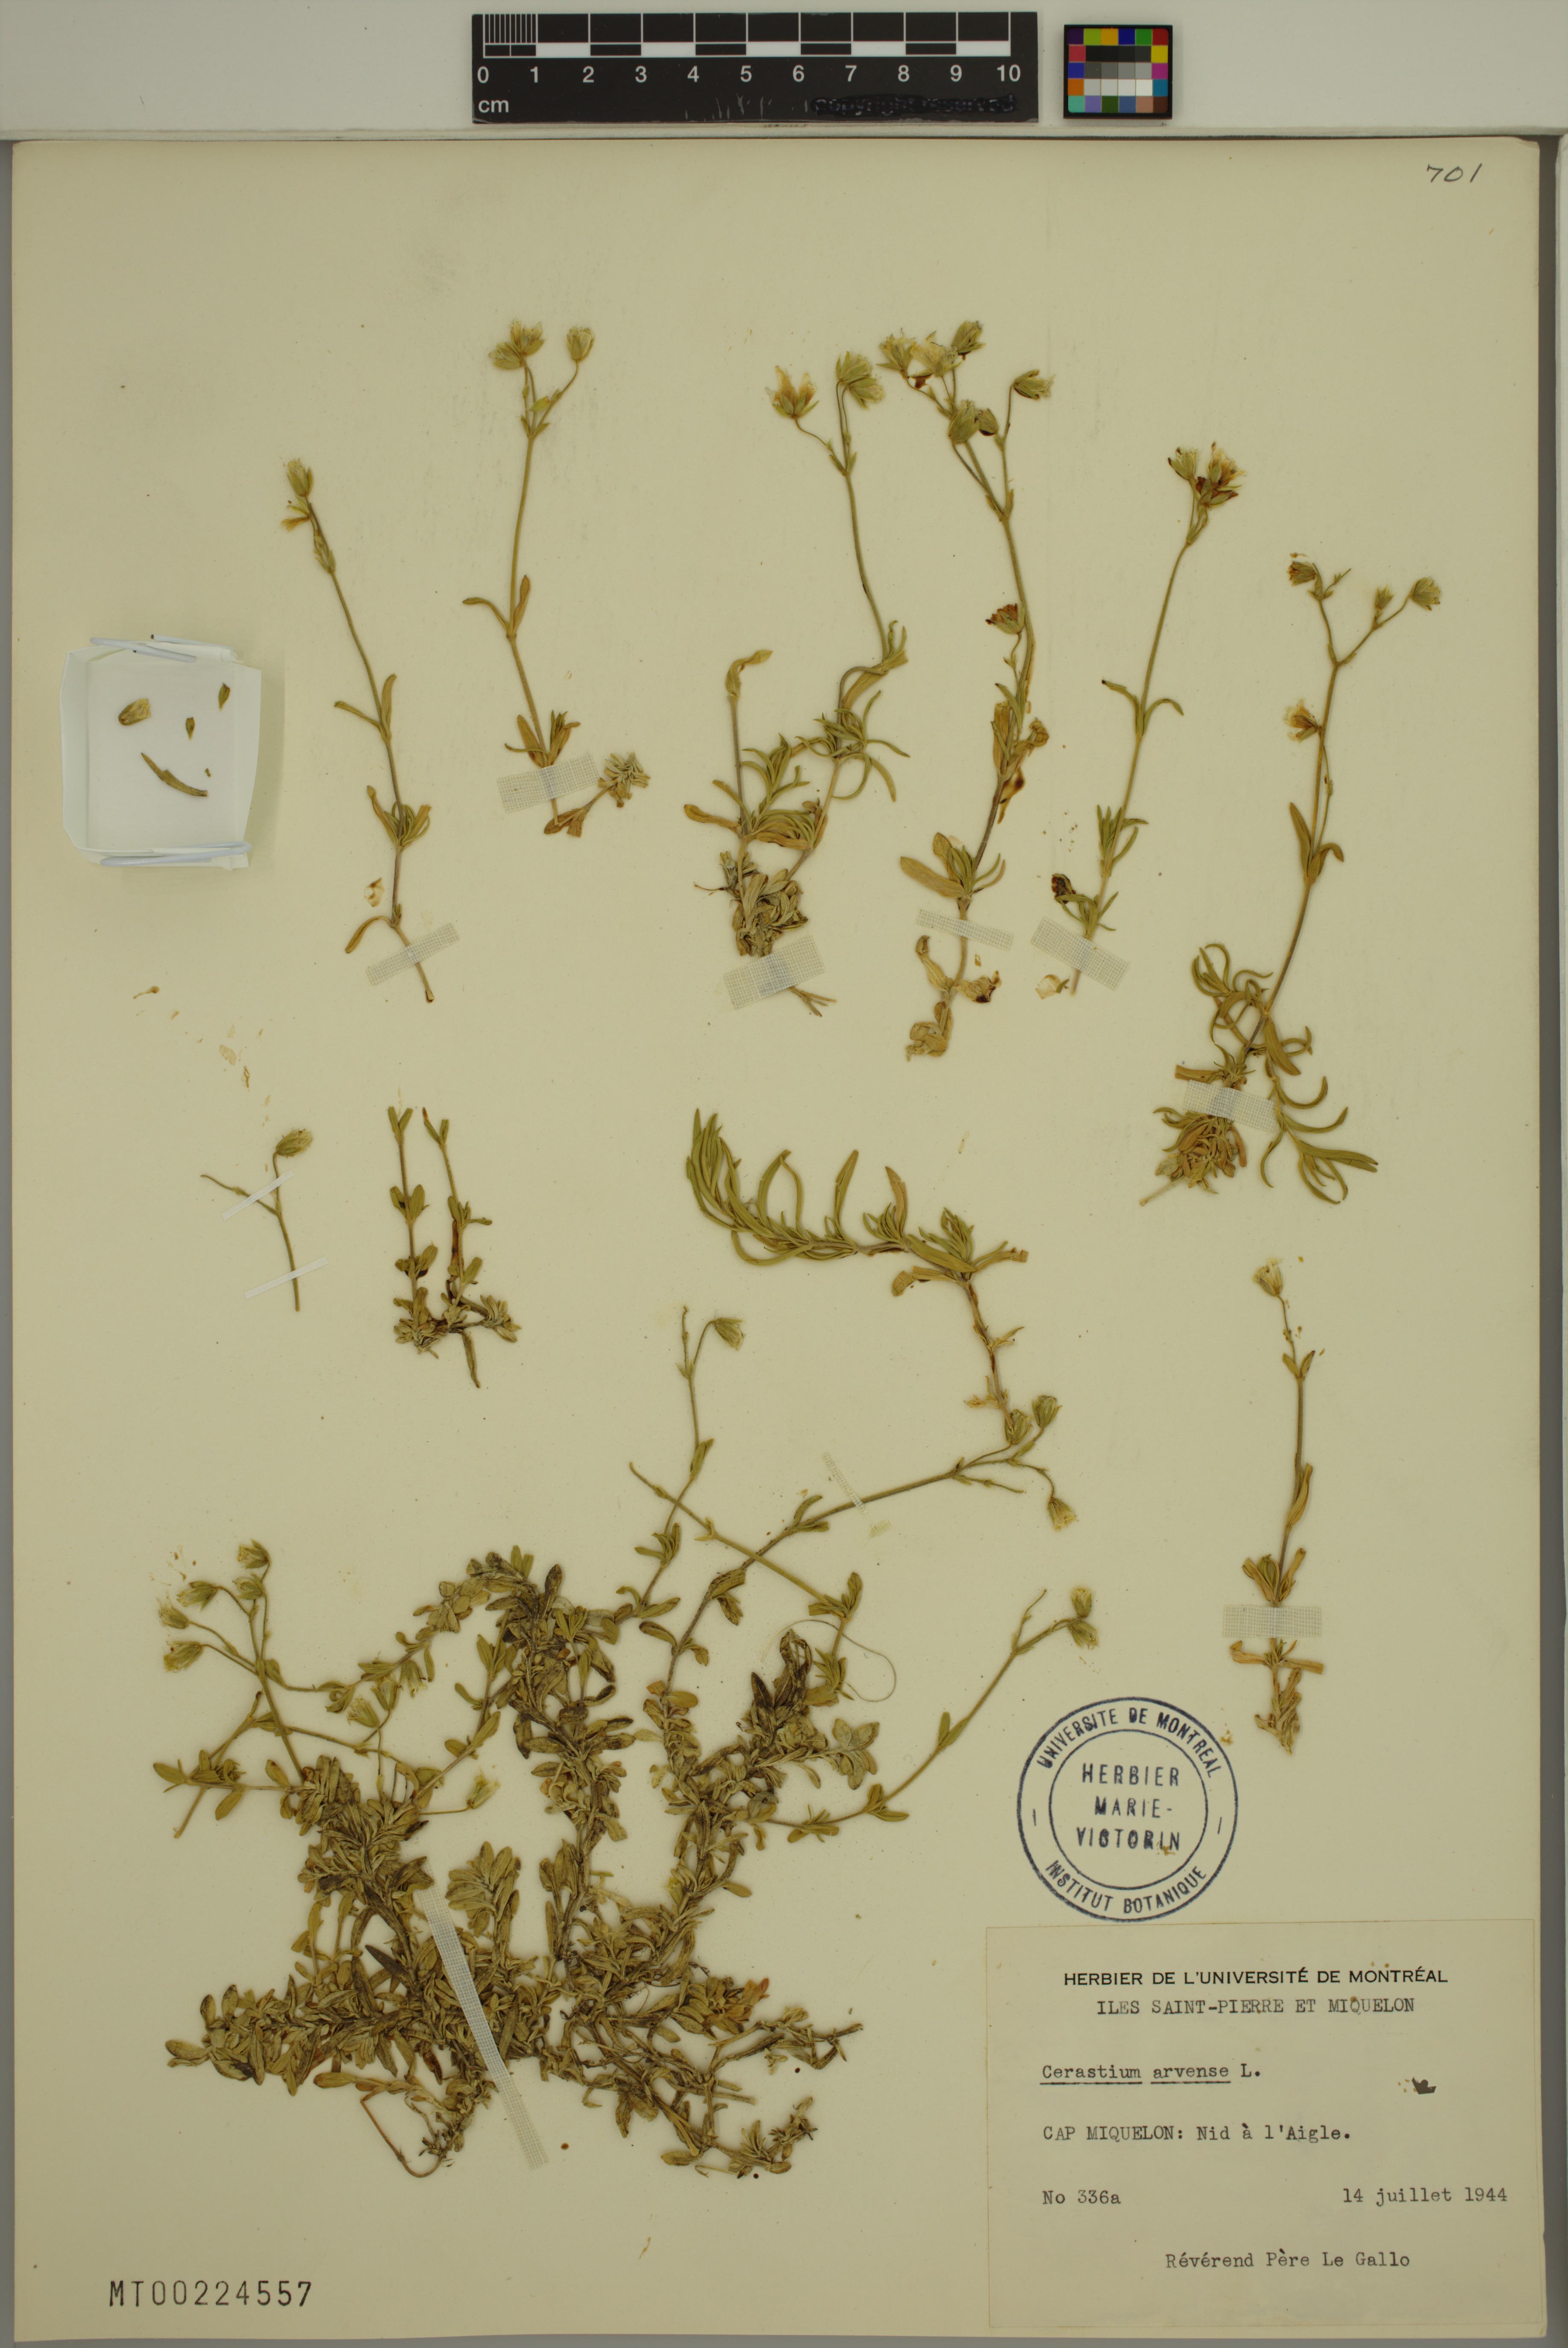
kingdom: Plantae
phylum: Tracheophyta
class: Magnoliopsida
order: Caryophyllales
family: Caryophyllaceae
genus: Cerastium
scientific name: Cerastium arvense
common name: Field mouse-ear
